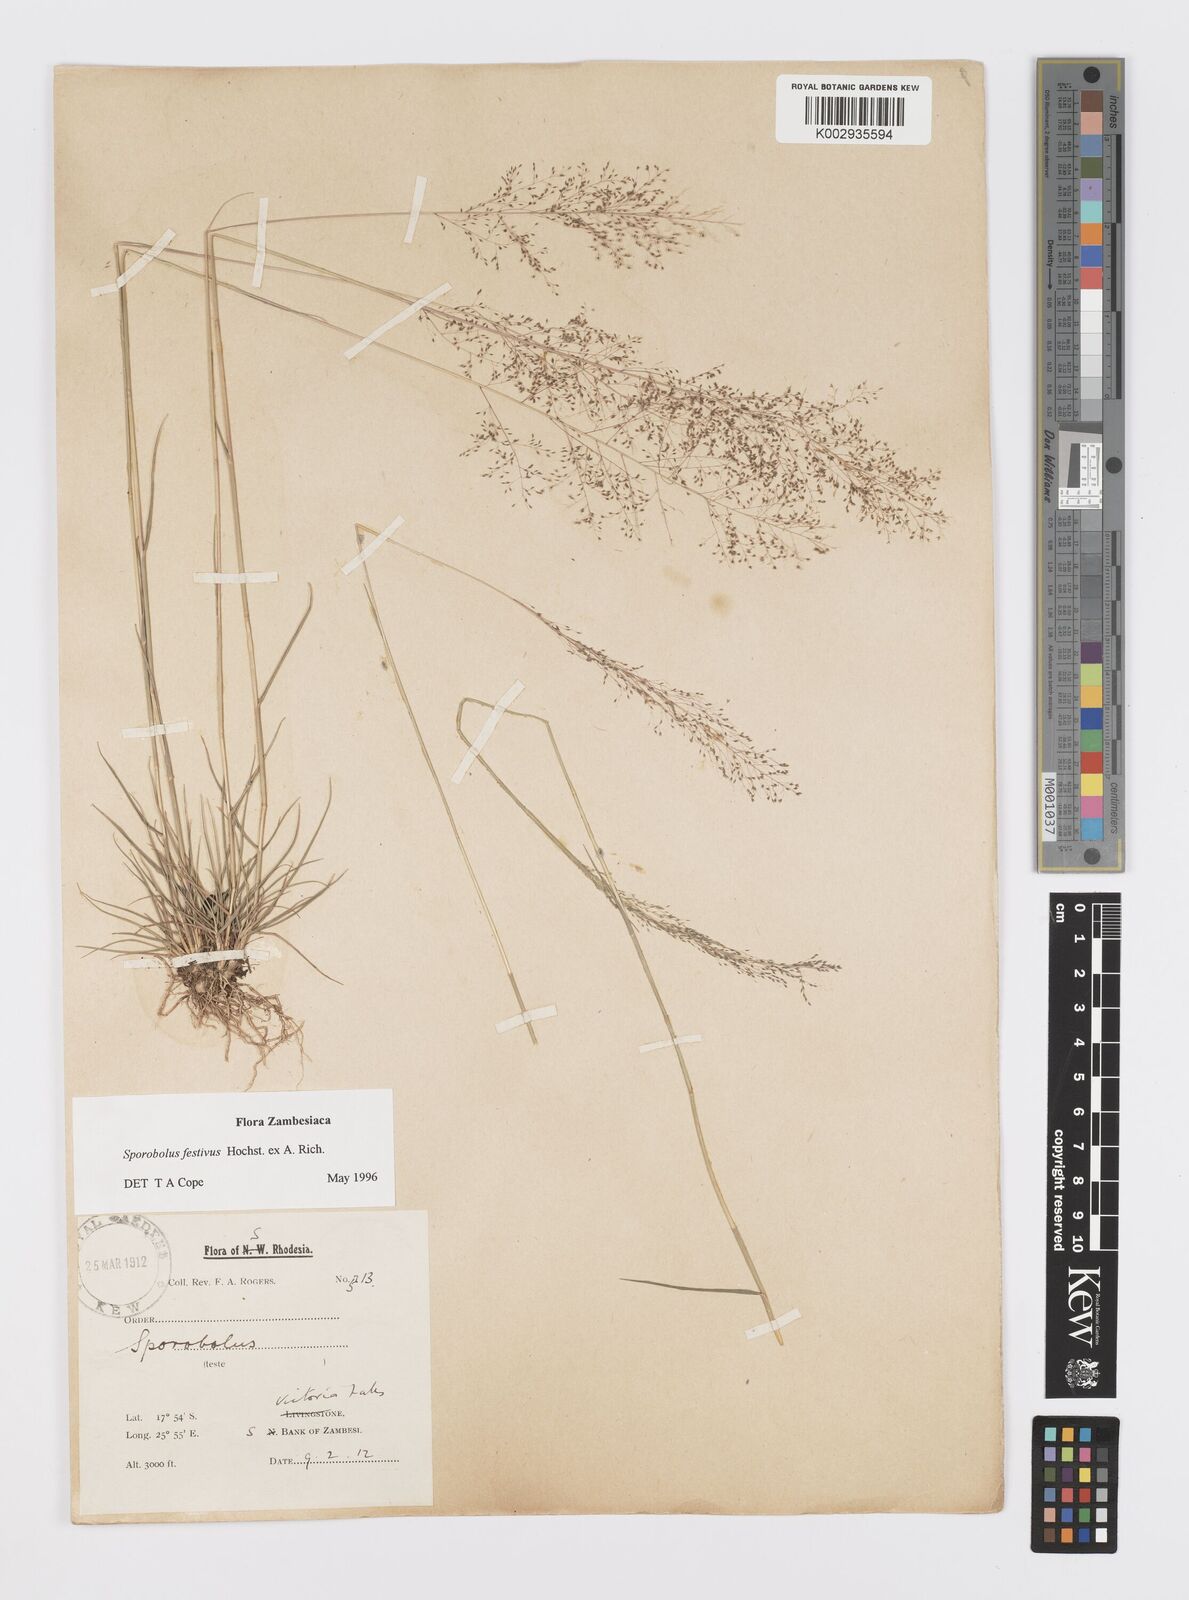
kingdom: Plantae
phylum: Tracheophyta
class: Liliopsida
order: Poales
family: Poaceae
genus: Sporobolus
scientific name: Sporobolus festivus
